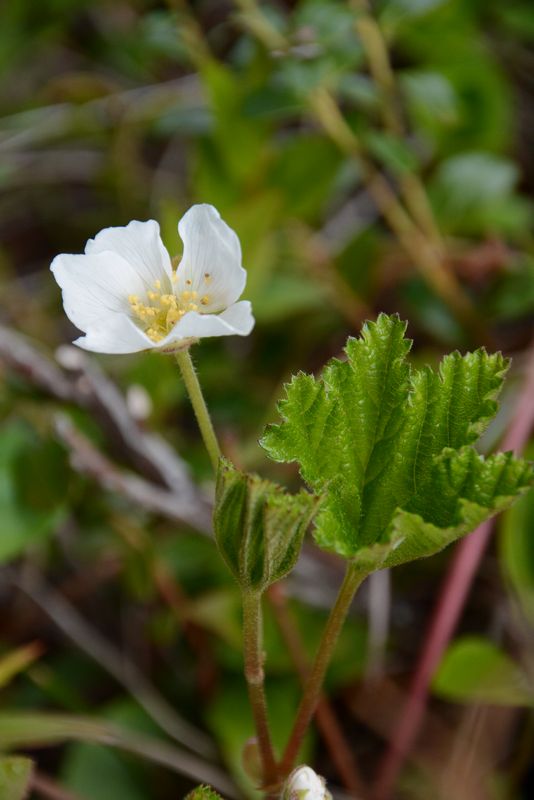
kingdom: Plantae
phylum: Tracheophyta
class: Magnoliopsida
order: Rosales
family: Rosaceae
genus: Rubus
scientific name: Rubus chamaemorus
